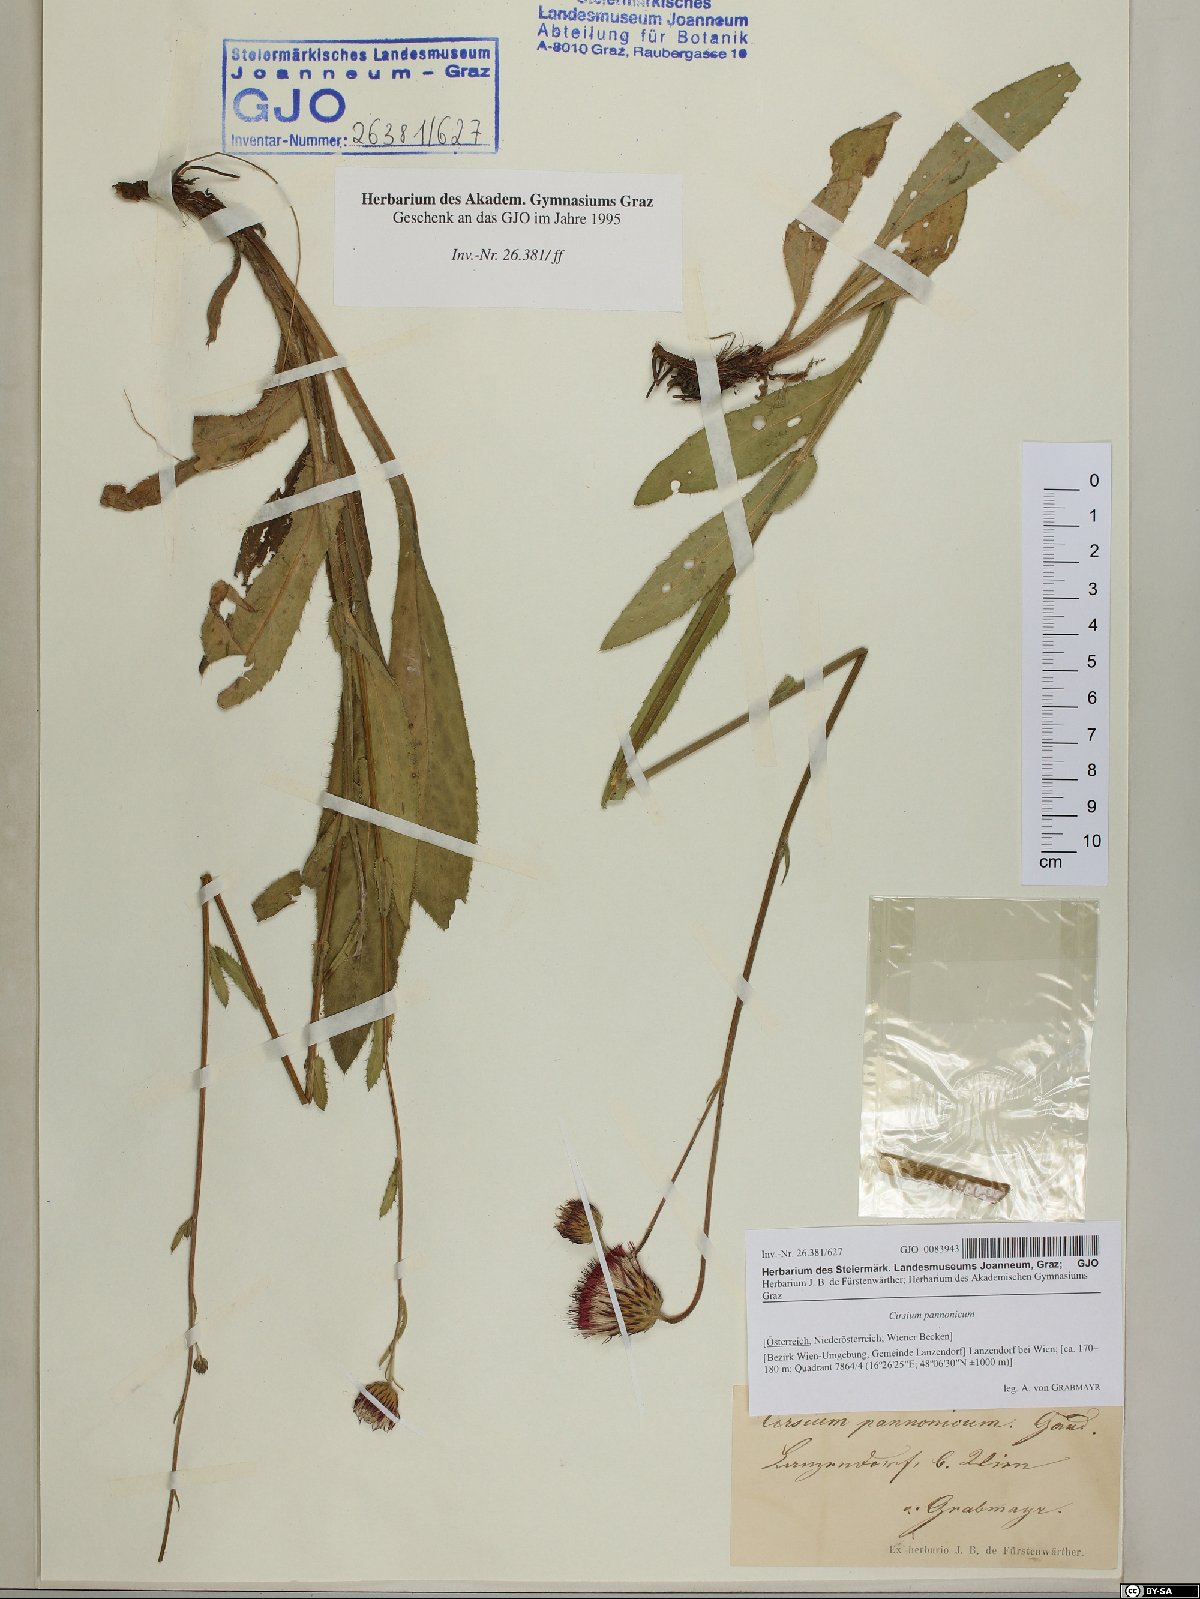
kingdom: Plantae
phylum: Tracheophyta
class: Magnoliopsida
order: Asterales
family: Asteraceae
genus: Cirsium
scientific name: Cirsium pannonicum
